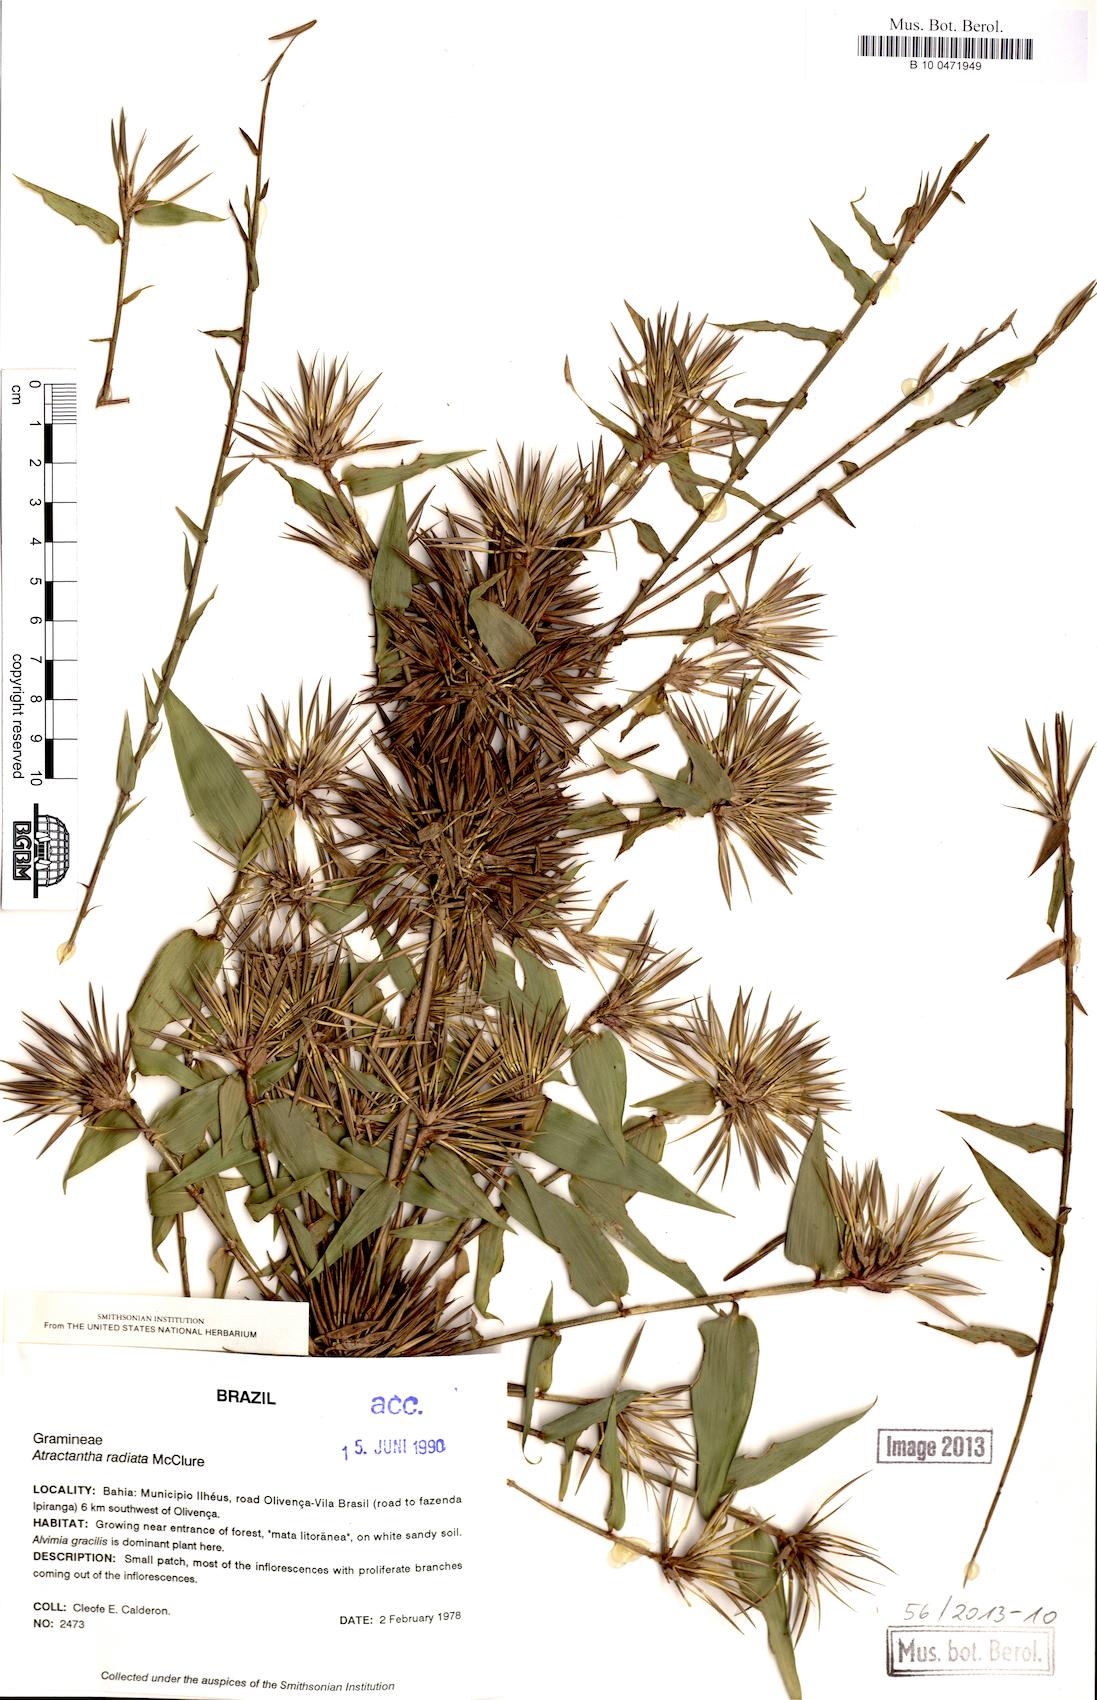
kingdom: Plantae
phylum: Tracheophyta
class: Liliopsida
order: Poales
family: Poaceae
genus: Atractantha
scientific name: Atractantha radiata
